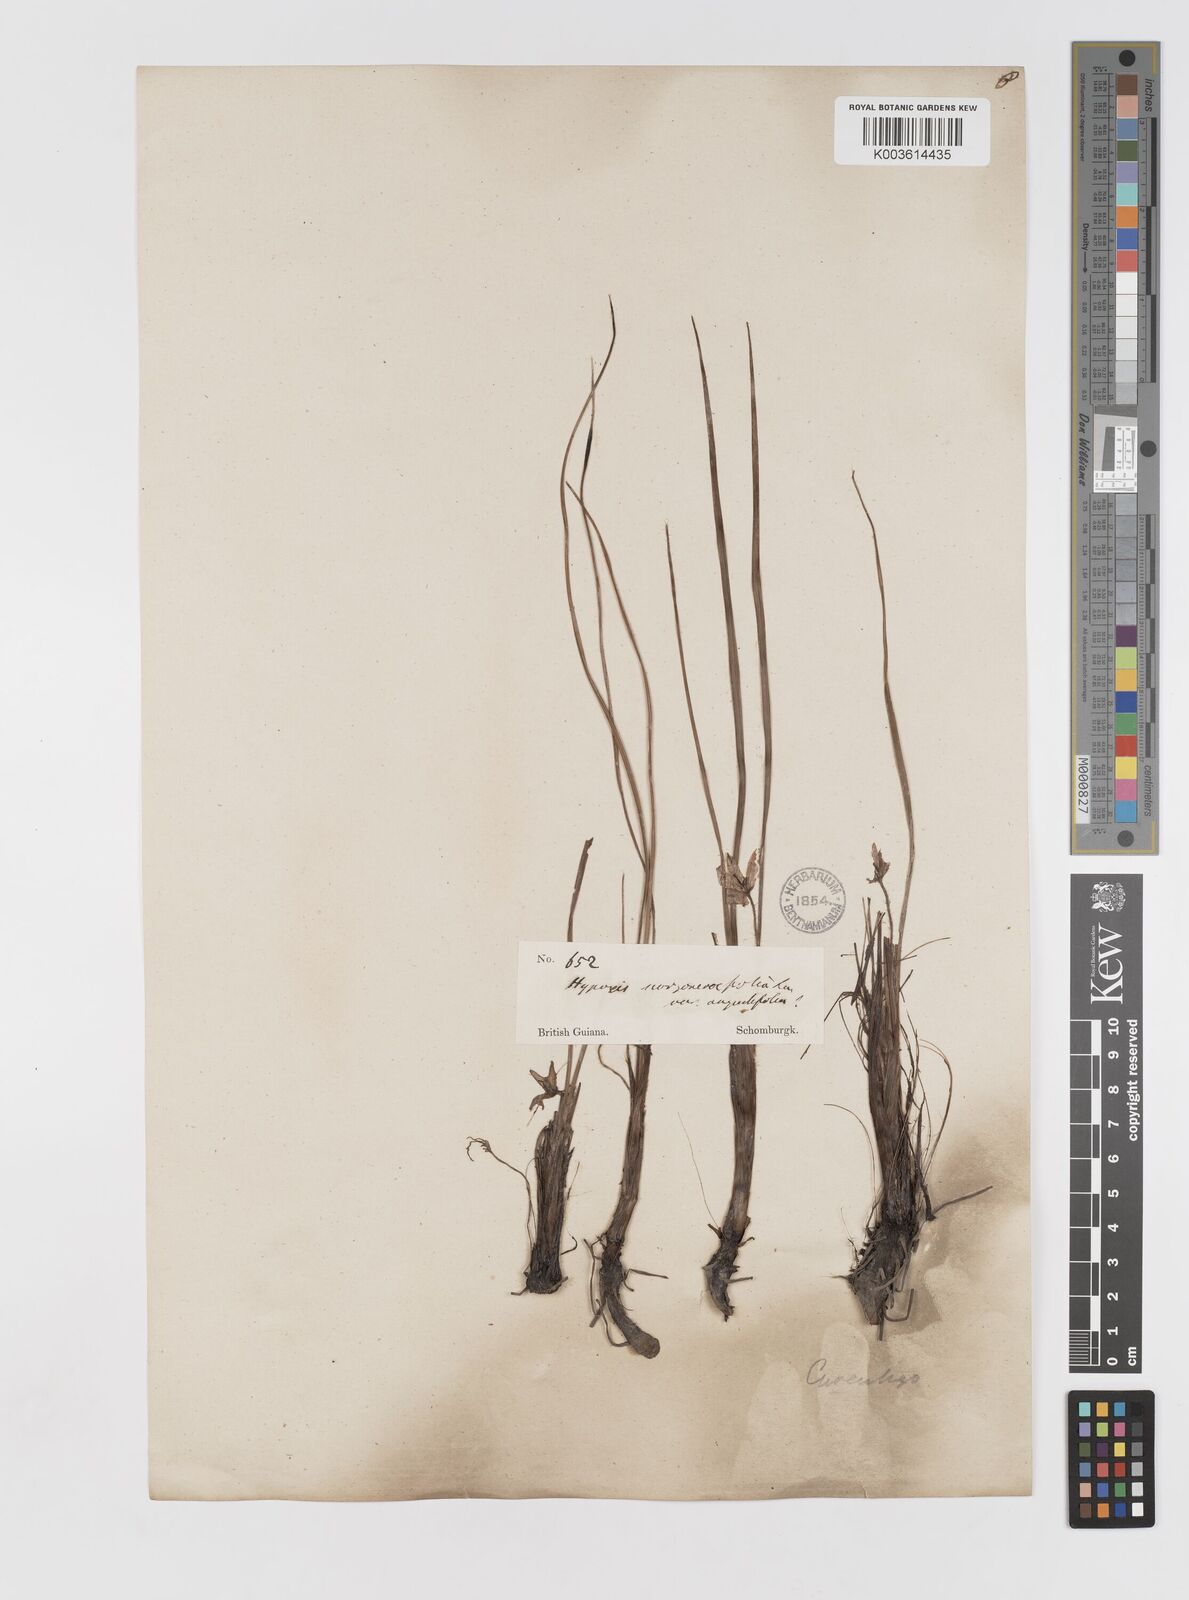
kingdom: Plantae
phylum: Tracheophyta
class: Liliopsida
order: Asparagales
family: Hypoxidaceae
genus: Curculigo
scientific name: Curculigo scorzonerifolia
